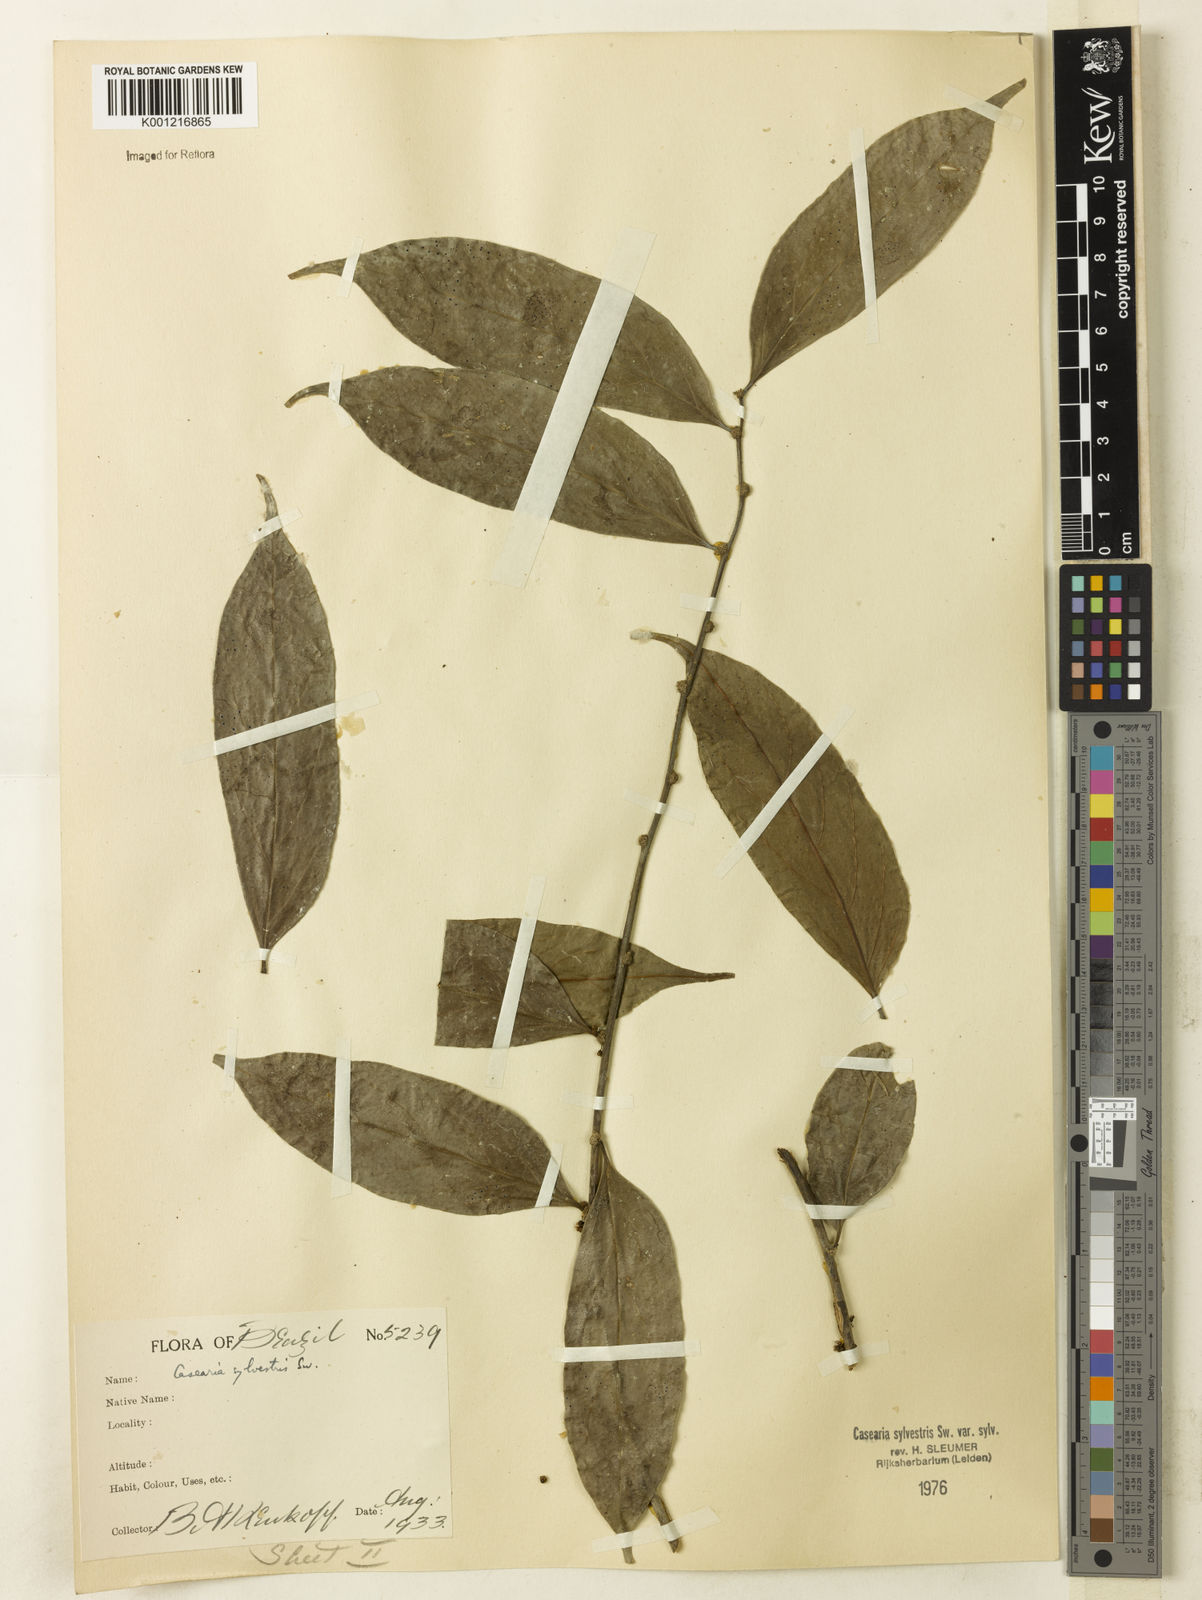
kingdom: Plantae
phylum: Tracheophyta
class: Magnoliopsida
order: Malpighiales
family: Salicaceae
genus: Casearia
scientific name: Casearia sylvestris
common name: Wild sage
